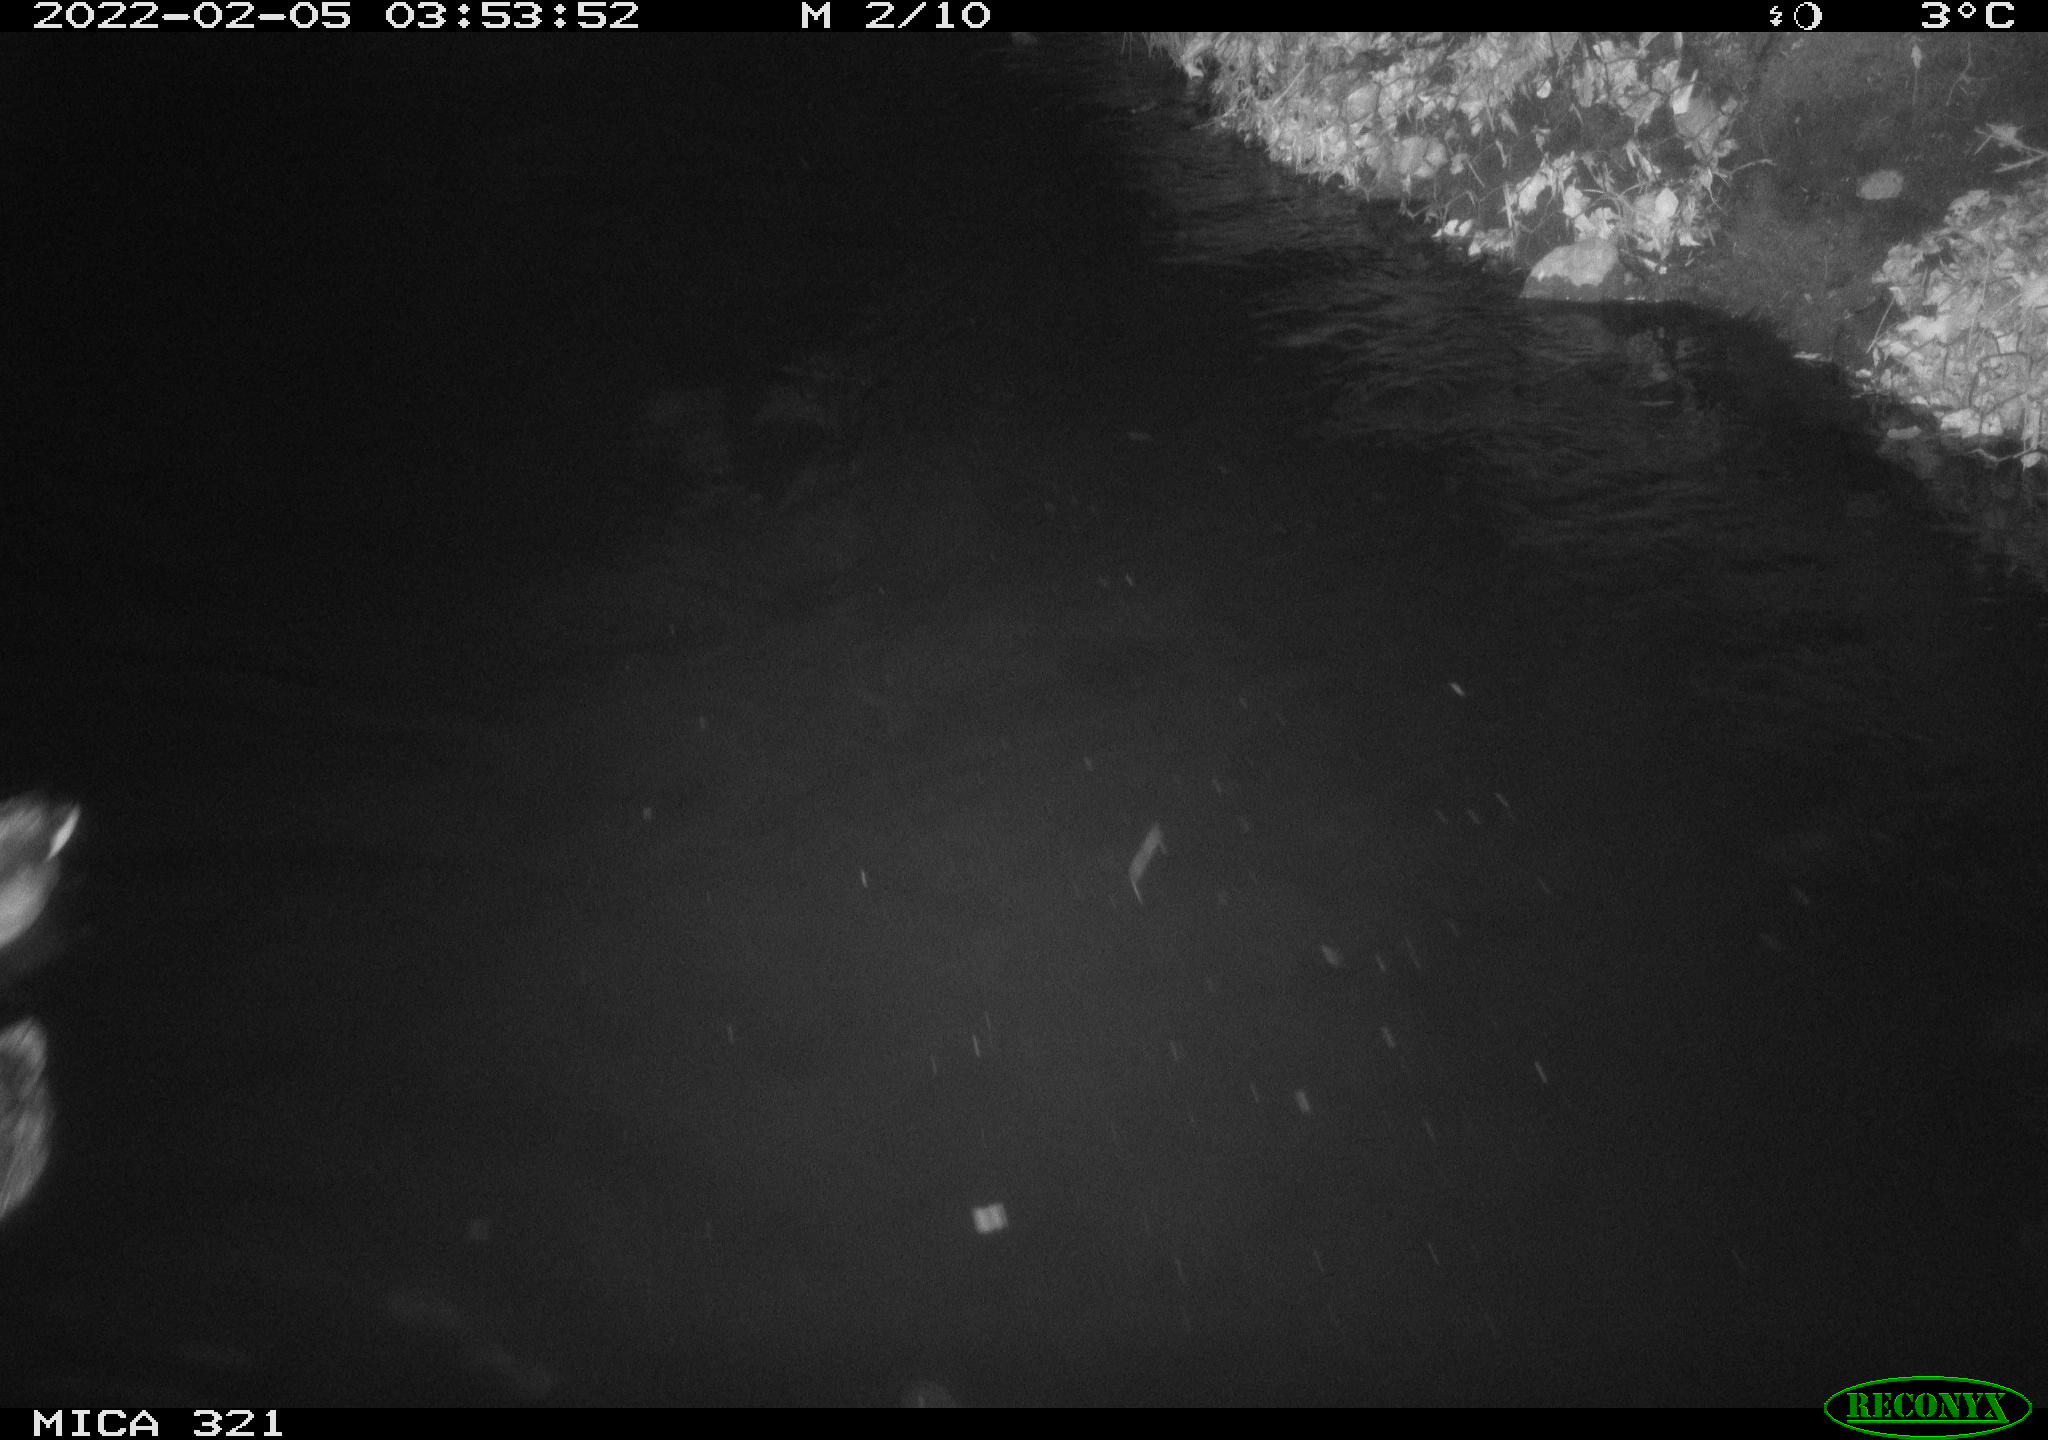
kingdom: Animalia
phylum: Chordata
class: Aves
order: Anseriformes
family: Anatidae
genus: Anas
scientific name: Anas platyrhynchos
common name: Mallard
